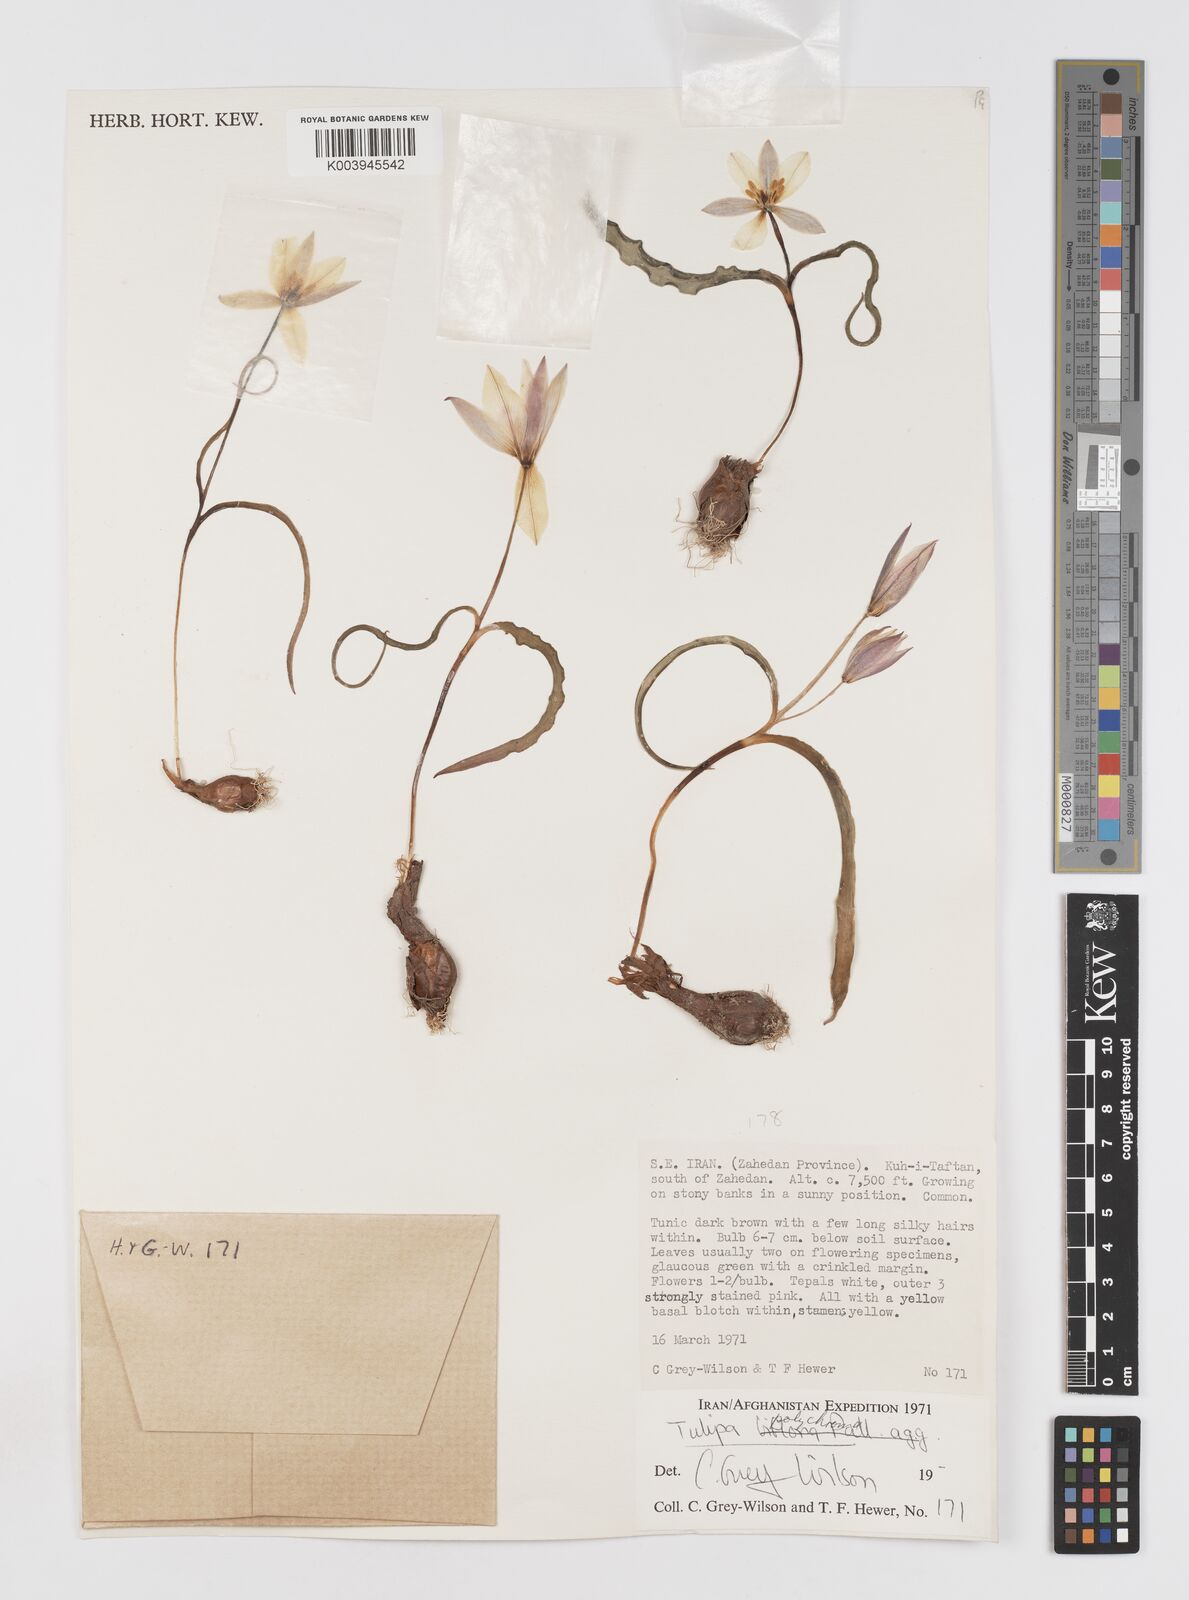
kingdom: Plantae
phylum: Tracheophyta
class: Liliopsida
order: Liliales
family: Liliaceae
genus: Tulipa
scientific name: Tulipa biflora
